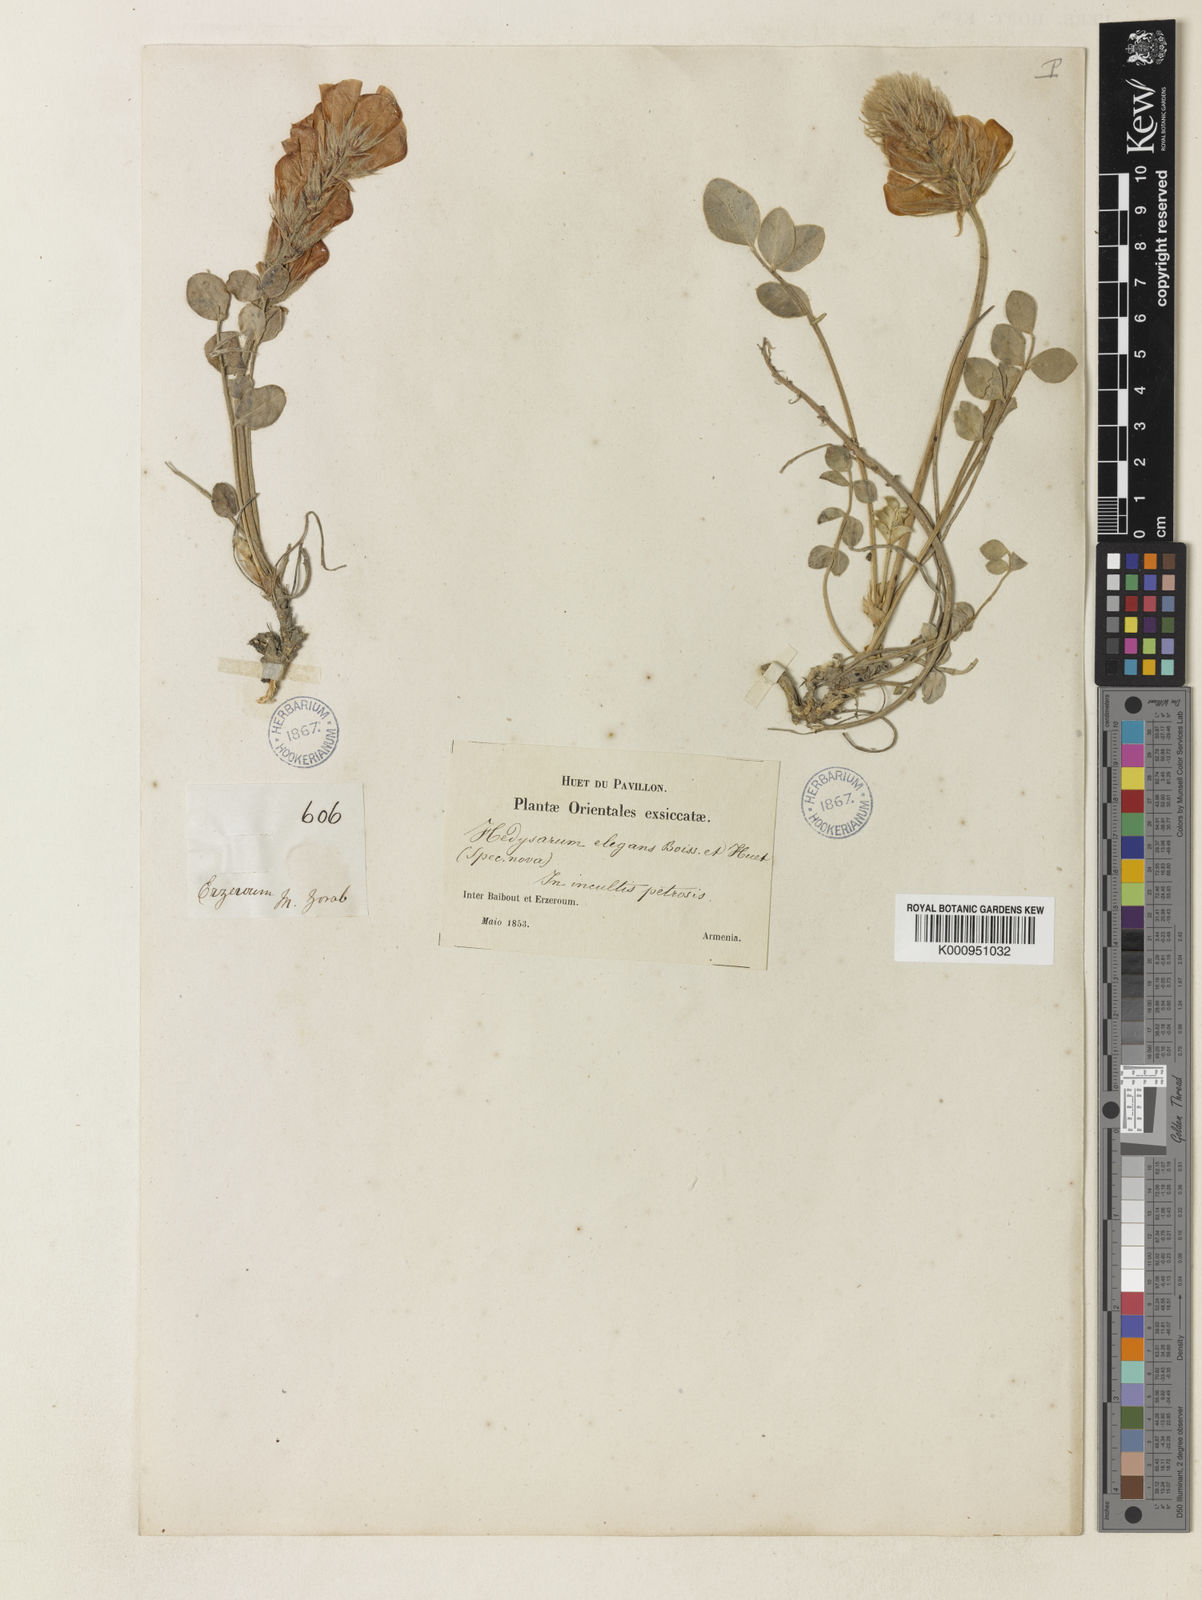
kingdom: Plantae
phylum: Tracheophyta
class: Magnoliopsida
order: Fabales
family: Fabaceae
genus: Hedysarum
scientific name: Hedysarum erzurumianum
